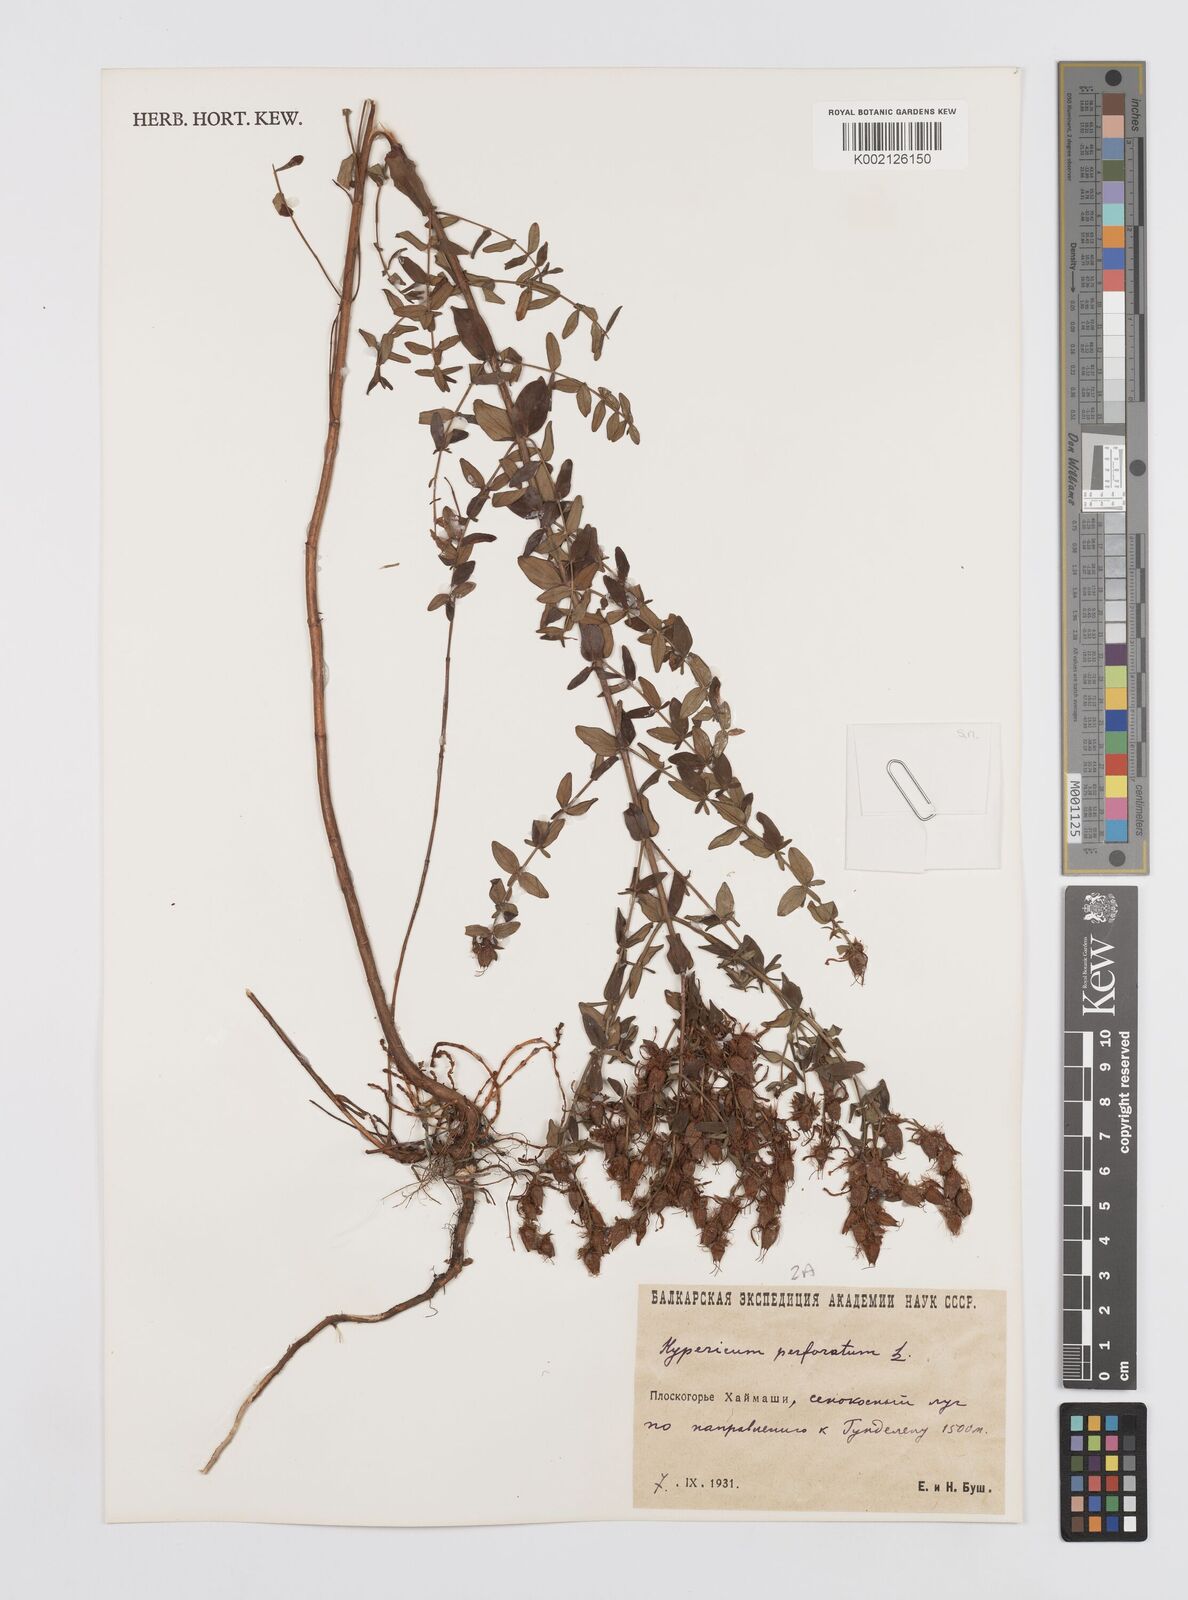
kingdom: Plantae
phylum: Tracheophyta
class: Magnoliopsida
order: Malpighiales
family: Hypericaceae
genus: Hypericum
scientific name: Hypericum perfoliatum
